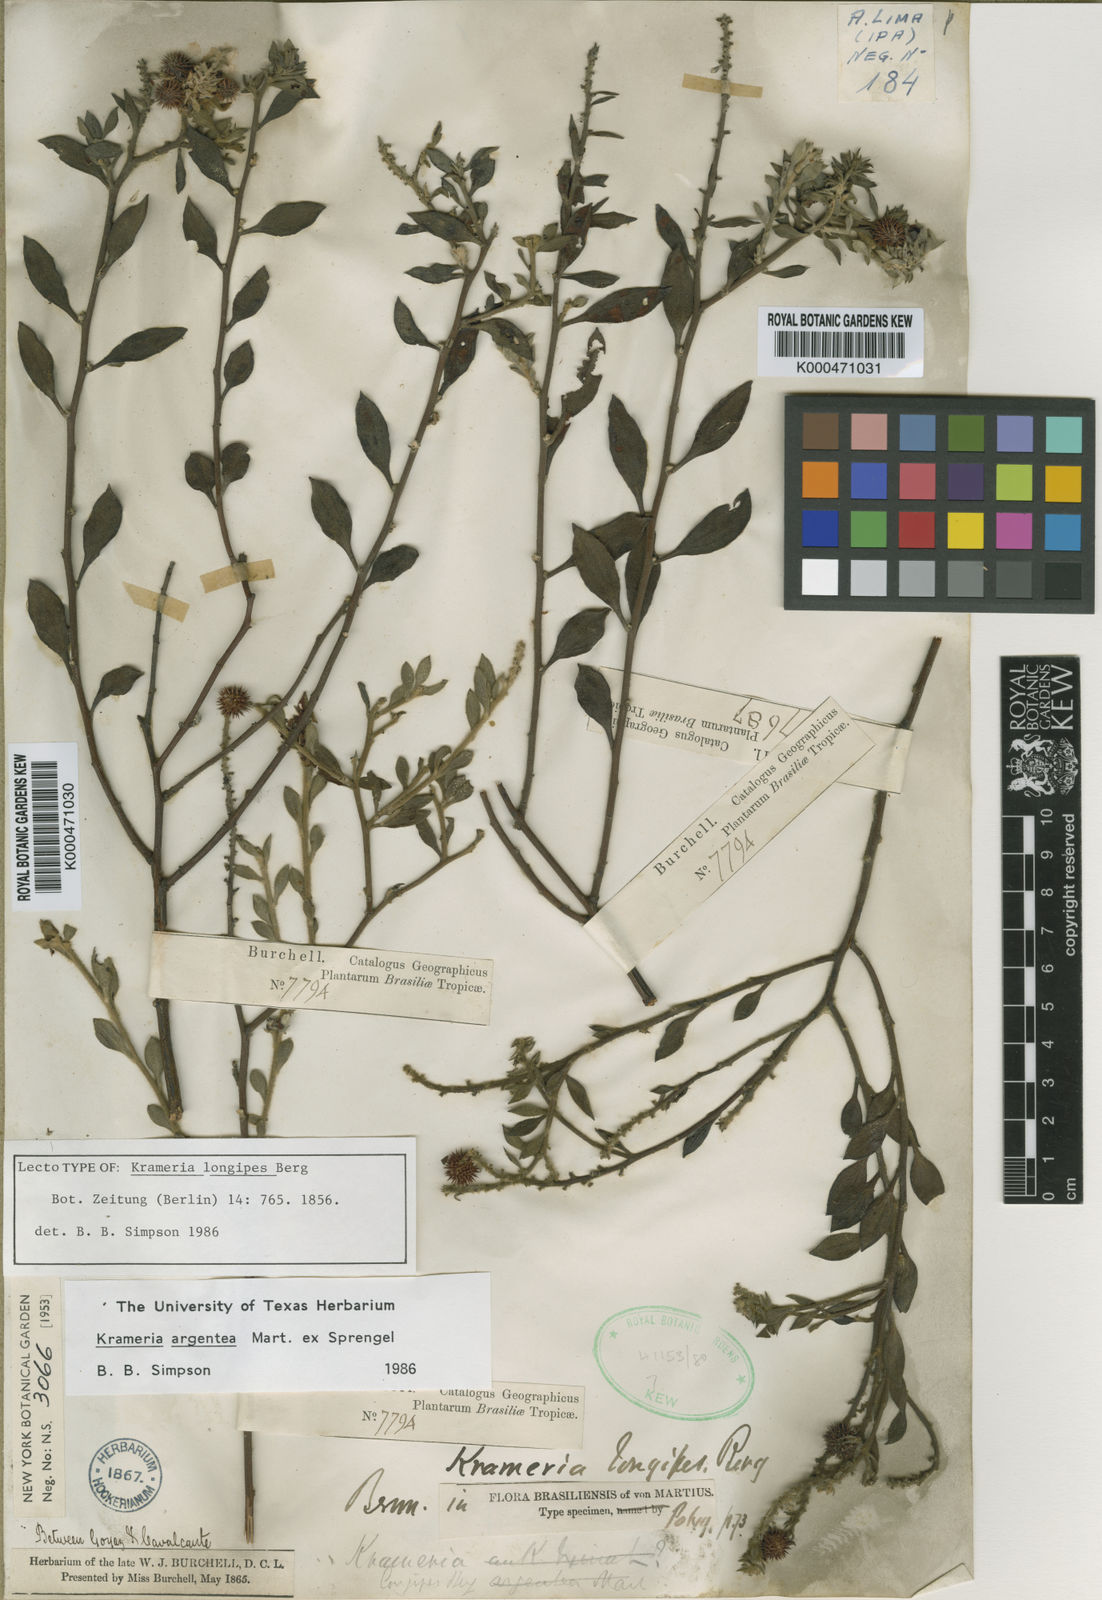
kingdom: Plantae
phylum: Tracheophyta
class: Magnoliopsida
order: Zygophyllales
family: Krameriaceae
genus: Krameria
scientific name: Krameria argentea
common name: Brown-rhatany,-ceará-rhatany
